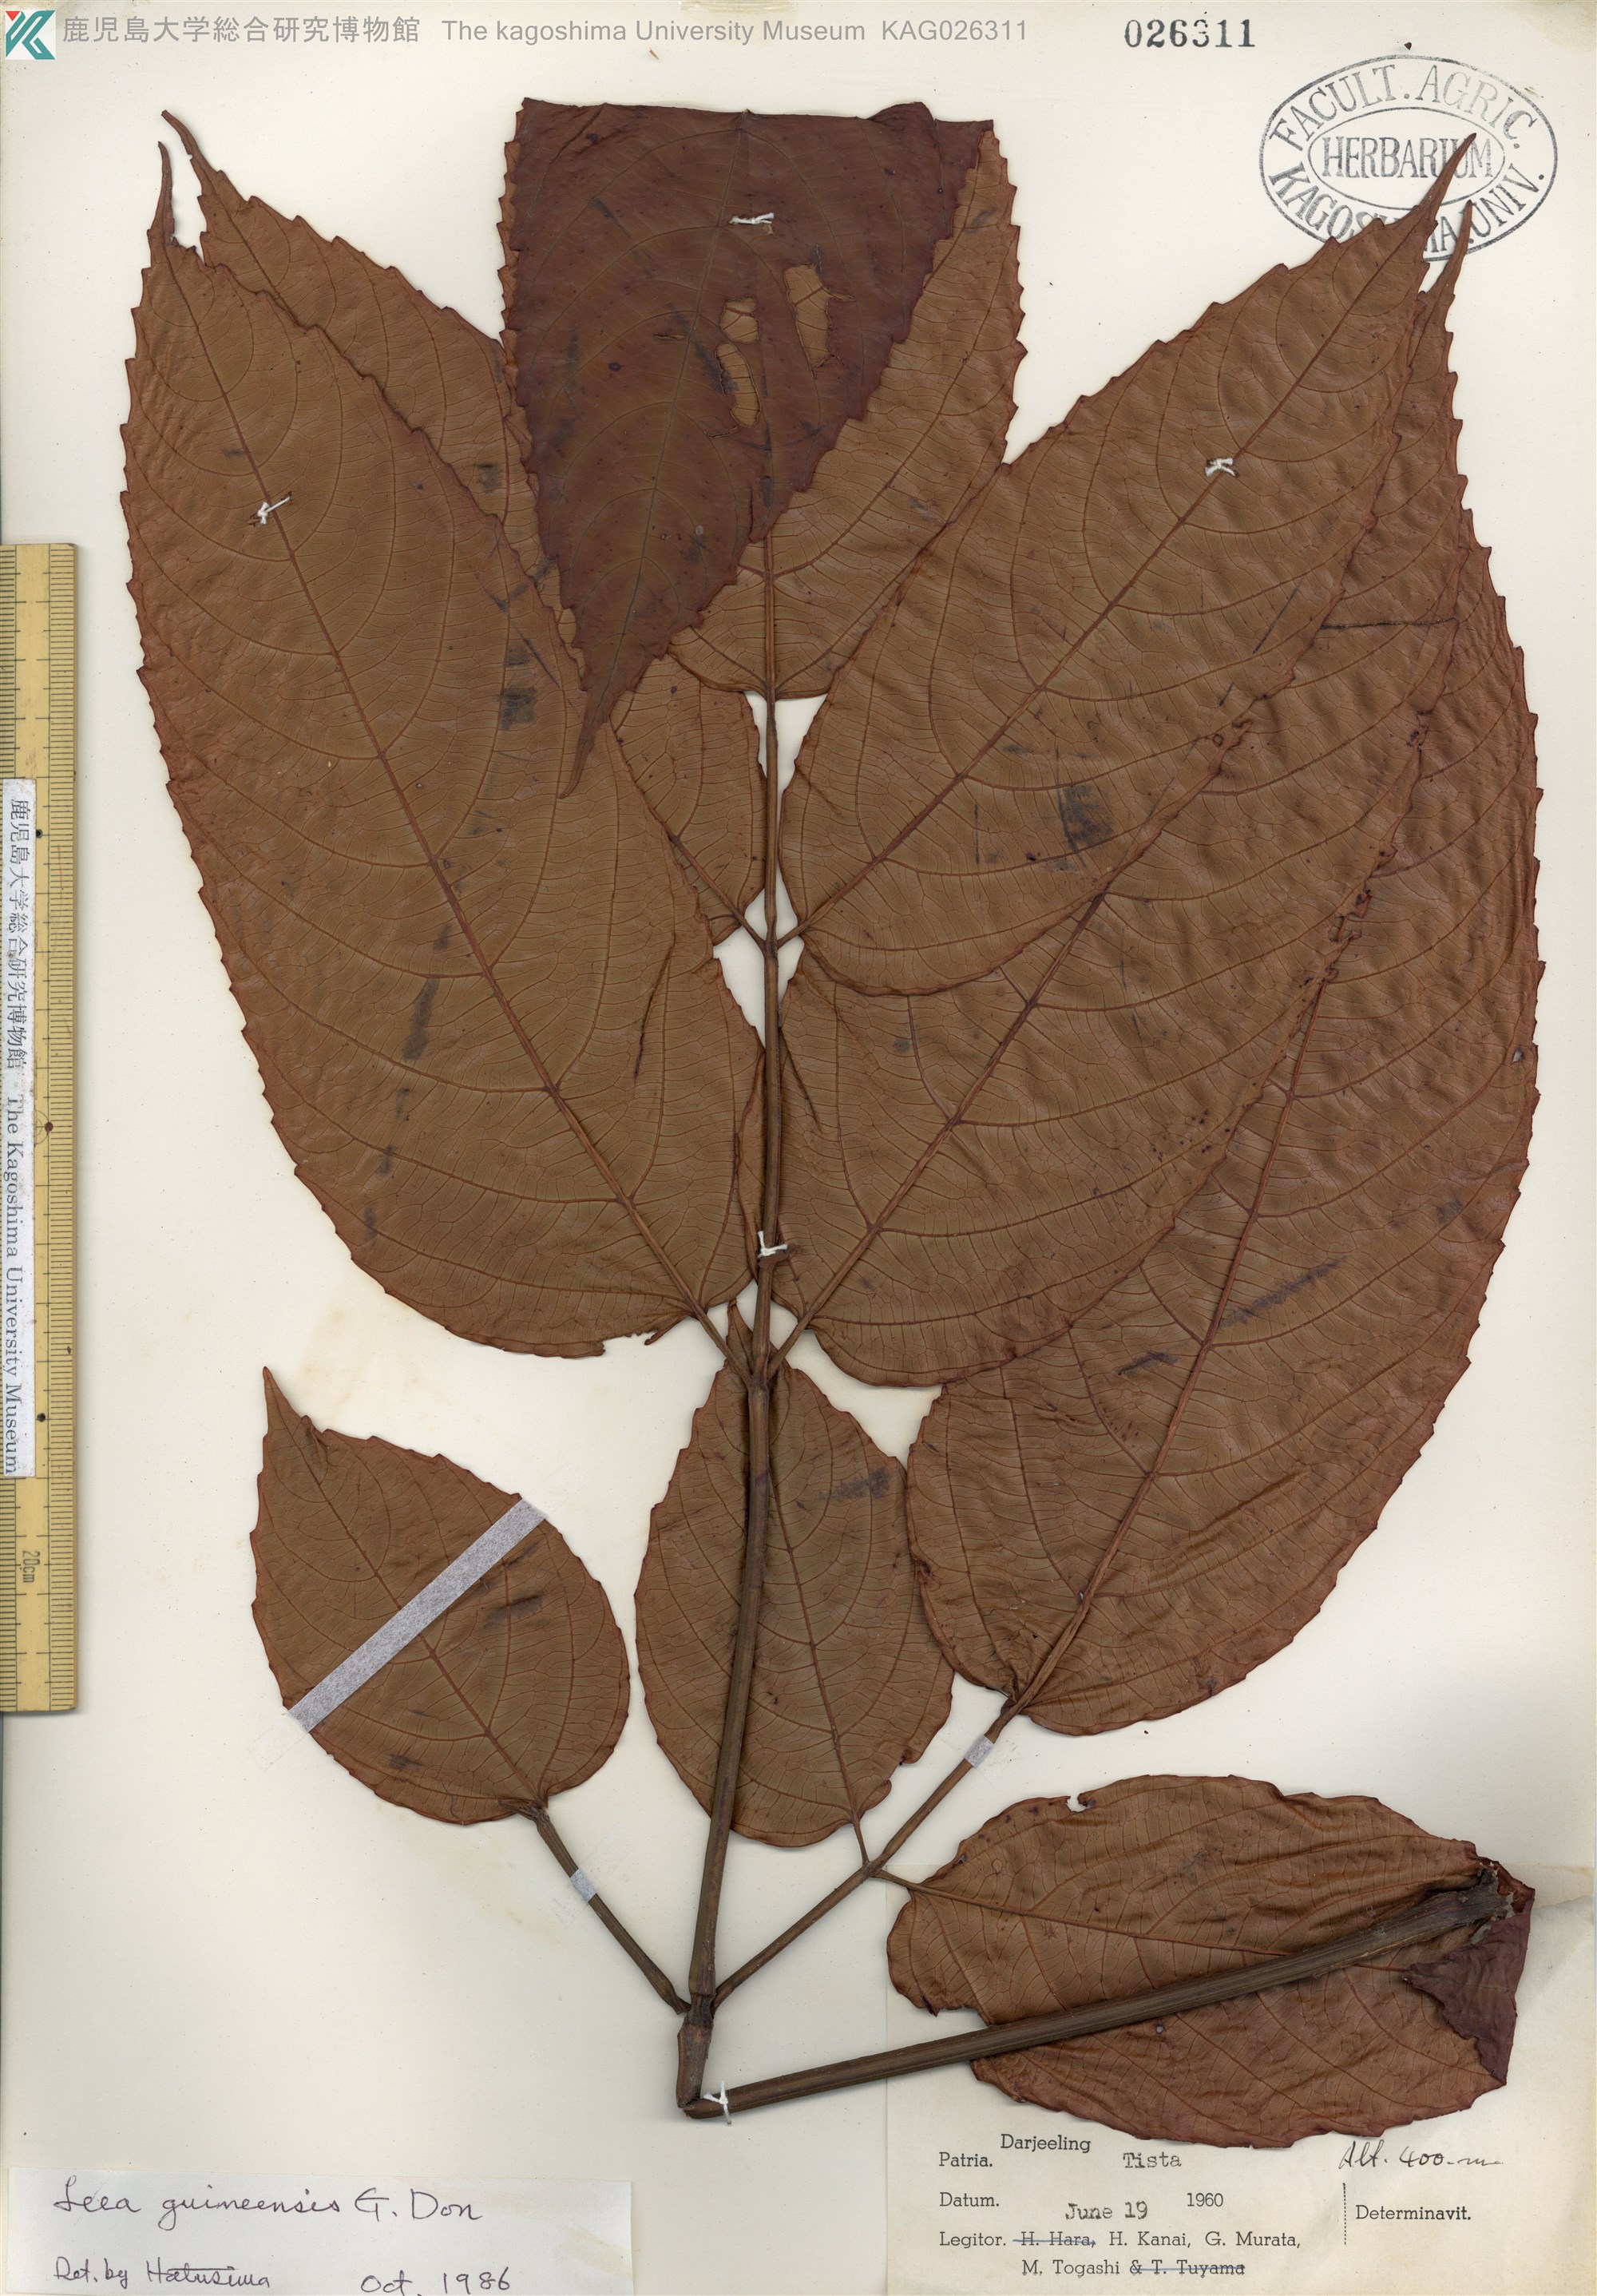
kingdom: Plantae
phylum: Tracheophyta
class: Magnoliopsida
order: Vitales
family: Vitaceae
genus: Leea
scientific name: Leea guineensis
